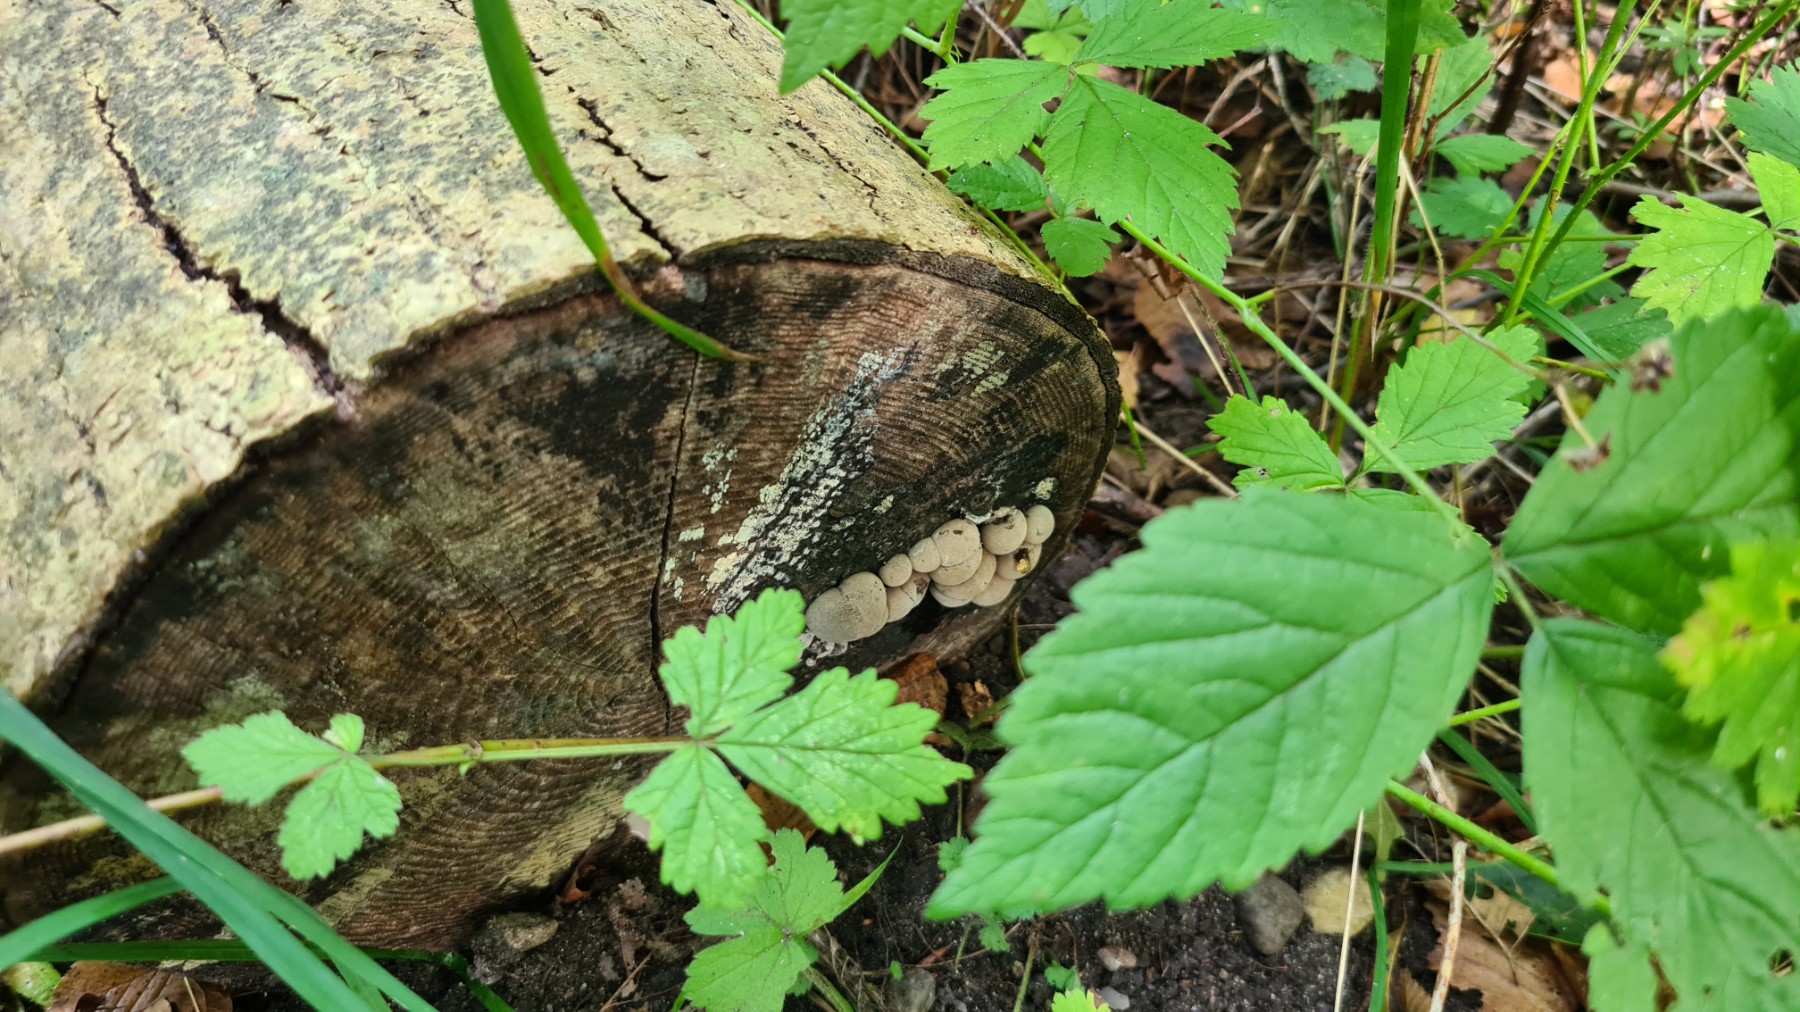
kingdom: Fungi
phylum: Ascomycota
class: Sordariomycetes
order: Xylariales
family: Hypoxylaceae
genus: Daldinia
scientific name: Daldinia concentrica
